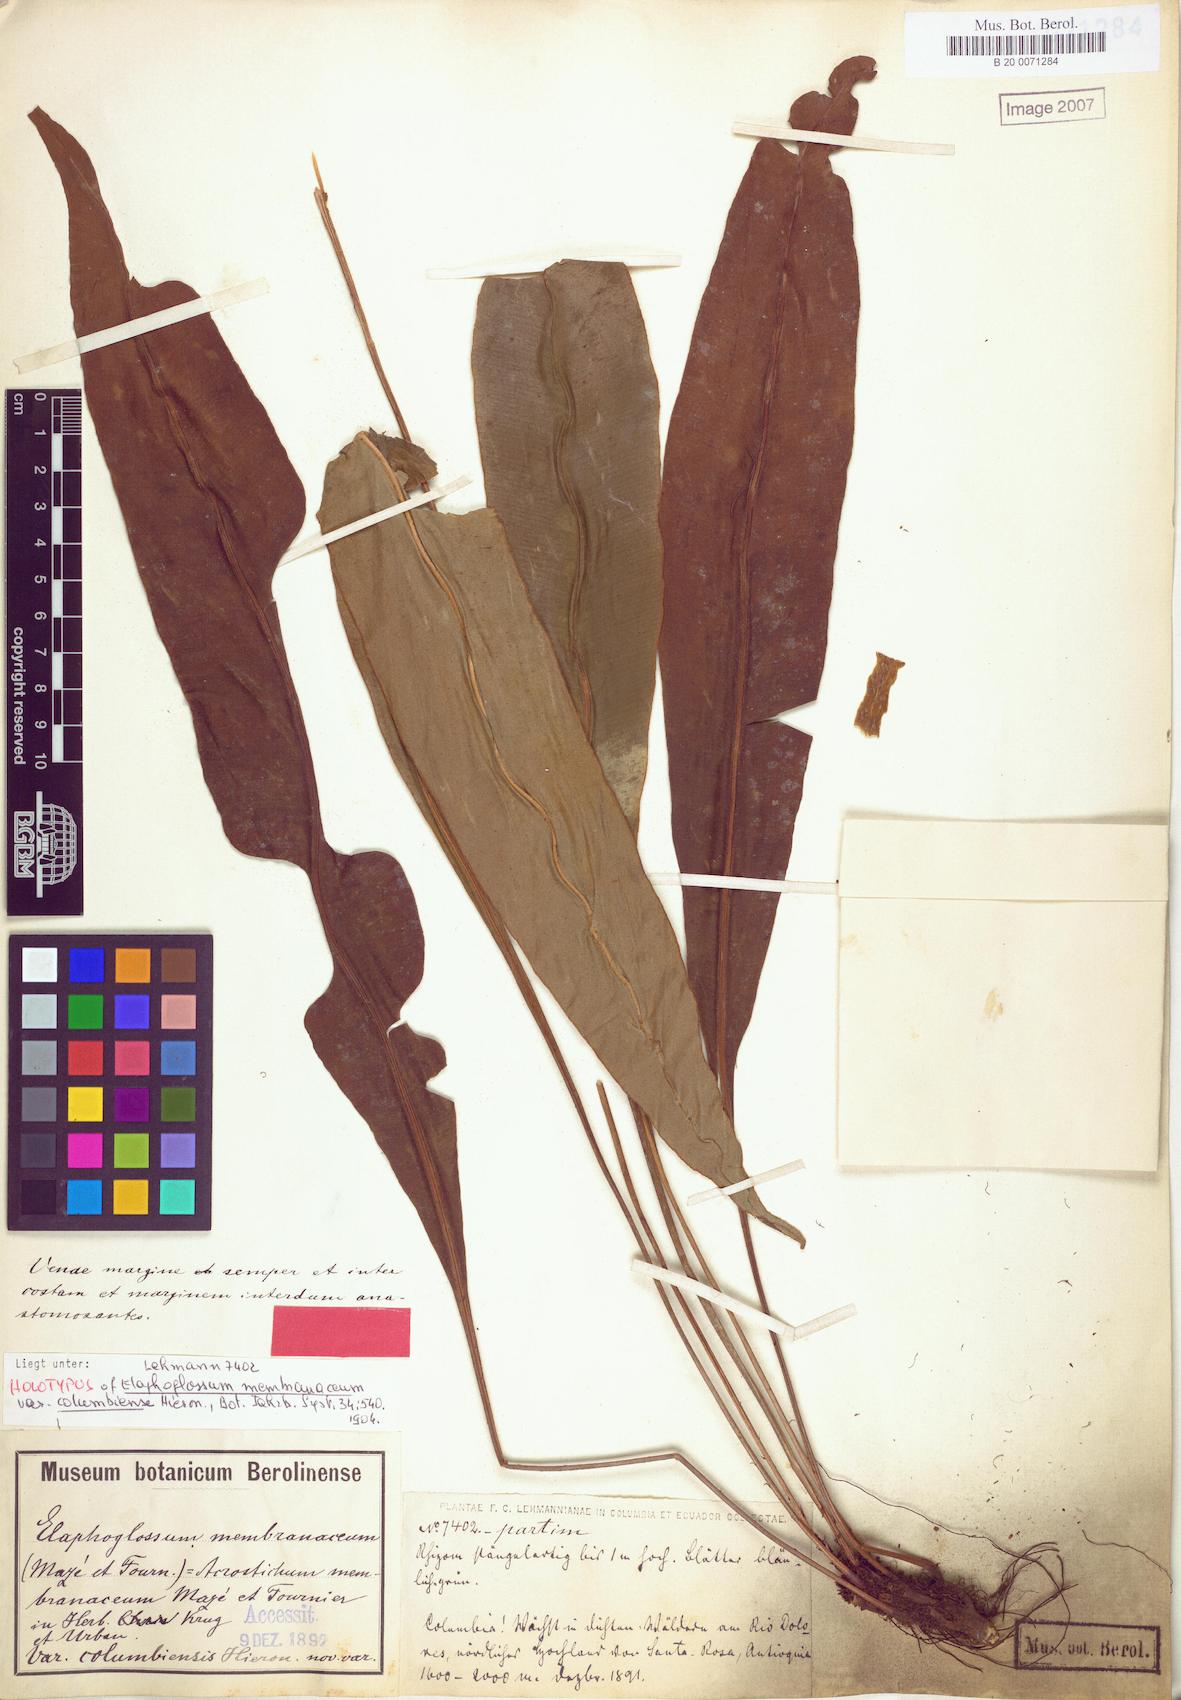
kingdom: Plantae
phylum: Tracheophyta
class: Polypodiopsida
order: Polypodiales
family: Dryopteridaceae
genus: Elaphoglossum
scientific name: Elaphoglossum latifolium
